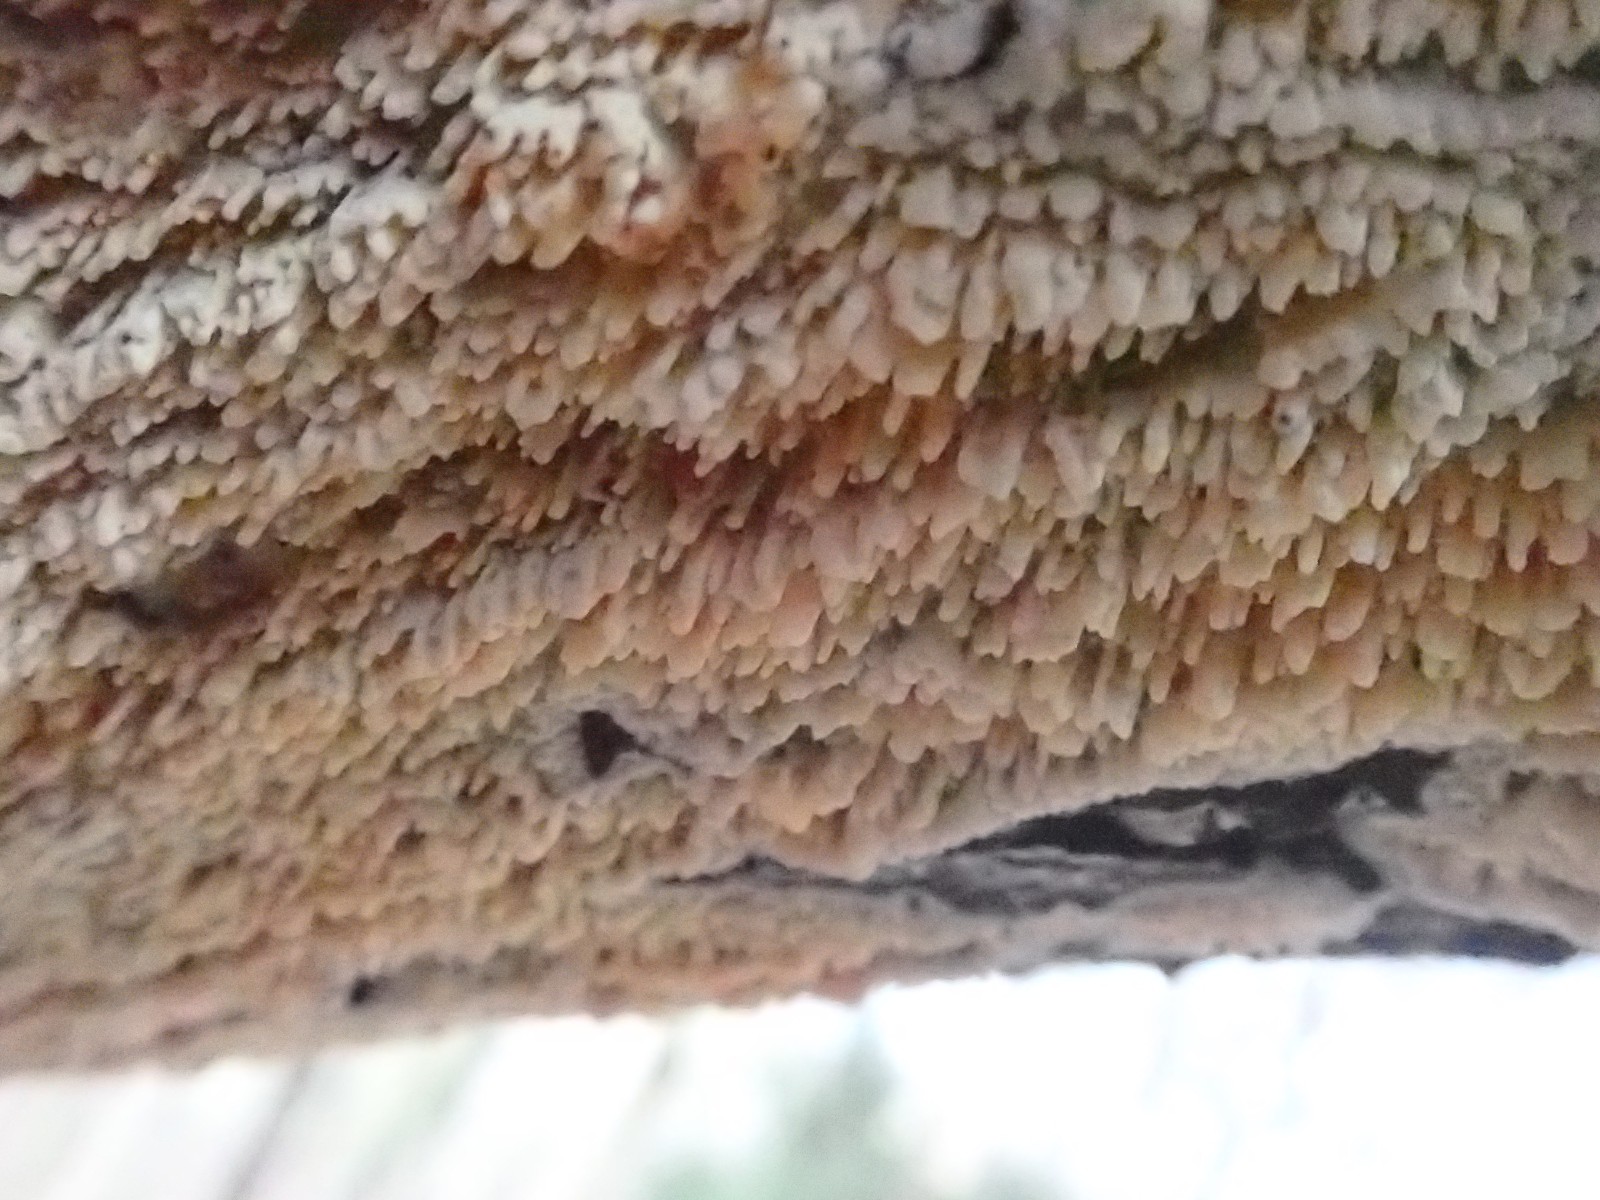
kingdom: Fungi
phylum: Basidiomycota
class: Agaricomycetes
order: Hymenochaetales
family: Schizoporaceae
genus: Xylodon
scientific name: Xylodon radula
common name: grovtandet kalkskind
